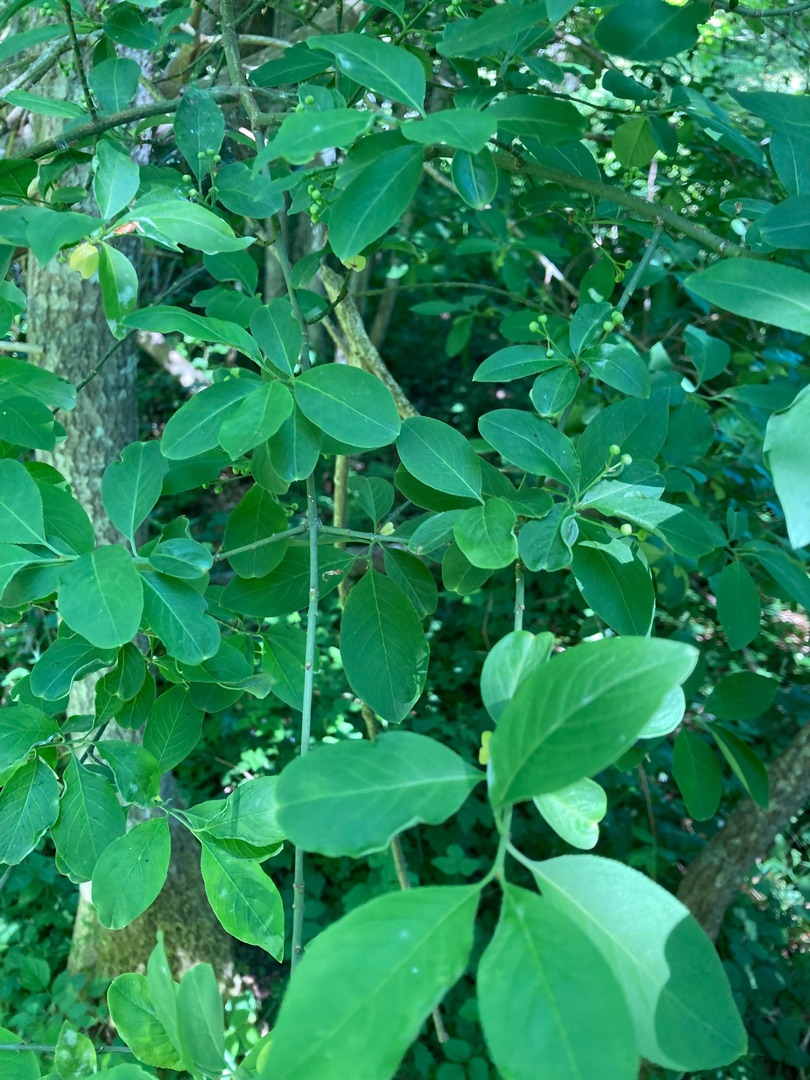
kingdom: Plantae
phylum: Tracheophyta
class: Magnoliopsida
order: Celastrales
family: Celastraceae
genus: Euonymus
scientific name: Euonymus europaeus
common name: Benved
